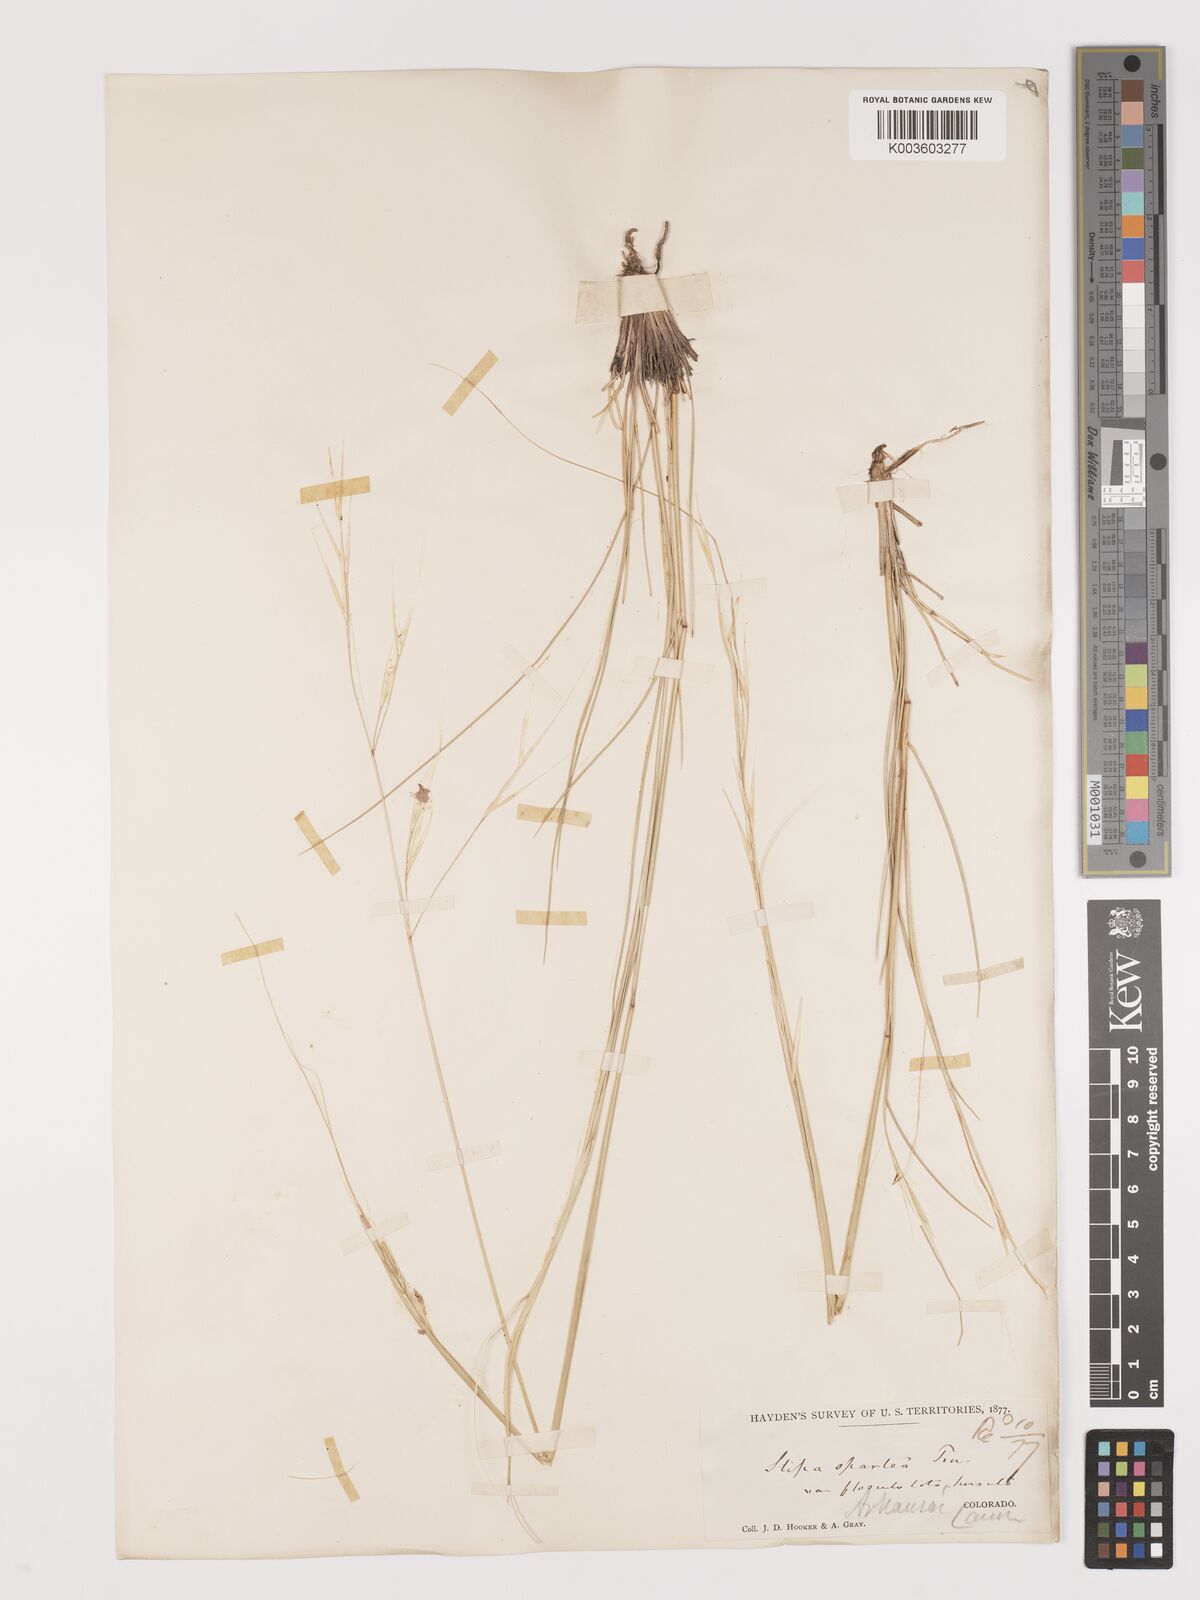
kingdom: Plantae
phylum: Tracheophyta
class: Liliopsida
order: Poales
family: Poaceae
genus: Hesperostipa
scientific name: Hesperostipa spartea
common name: Porcupine grass
